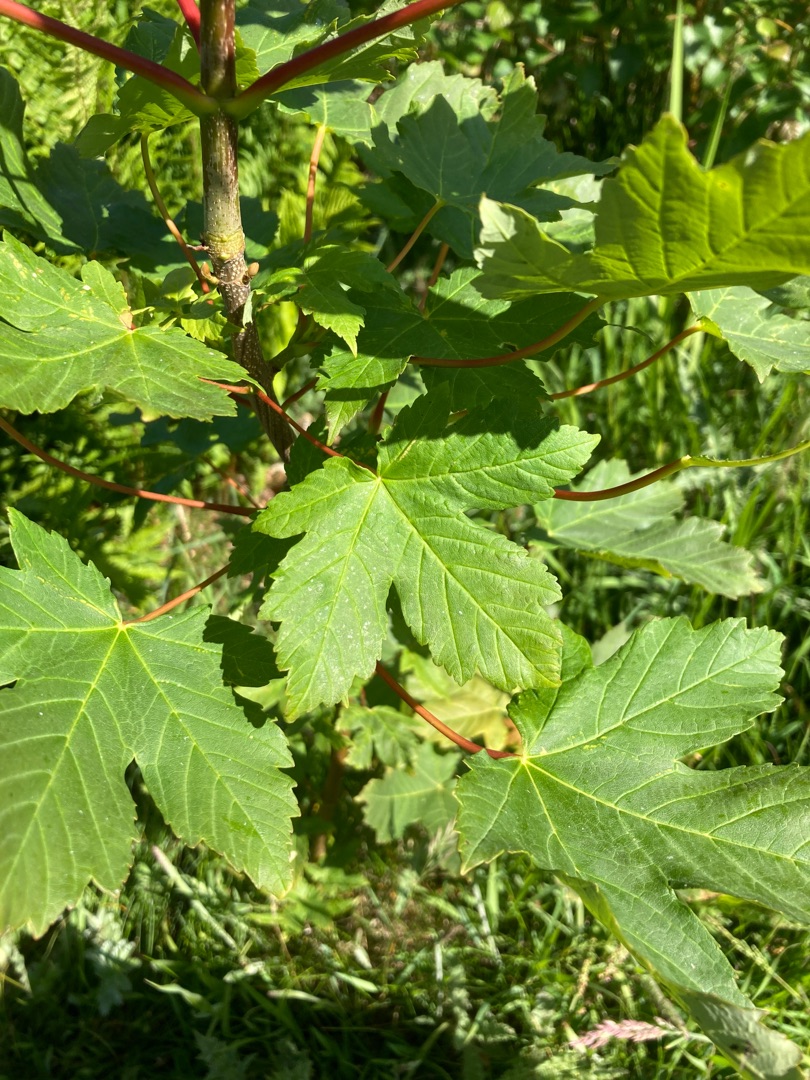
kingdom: Plantae
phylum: Tracheophyta
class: Magnoliopsida
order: Sapindales
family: Sapindaceae
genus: Acer
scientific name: Acer pseudoplatanus
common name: Ahorn
